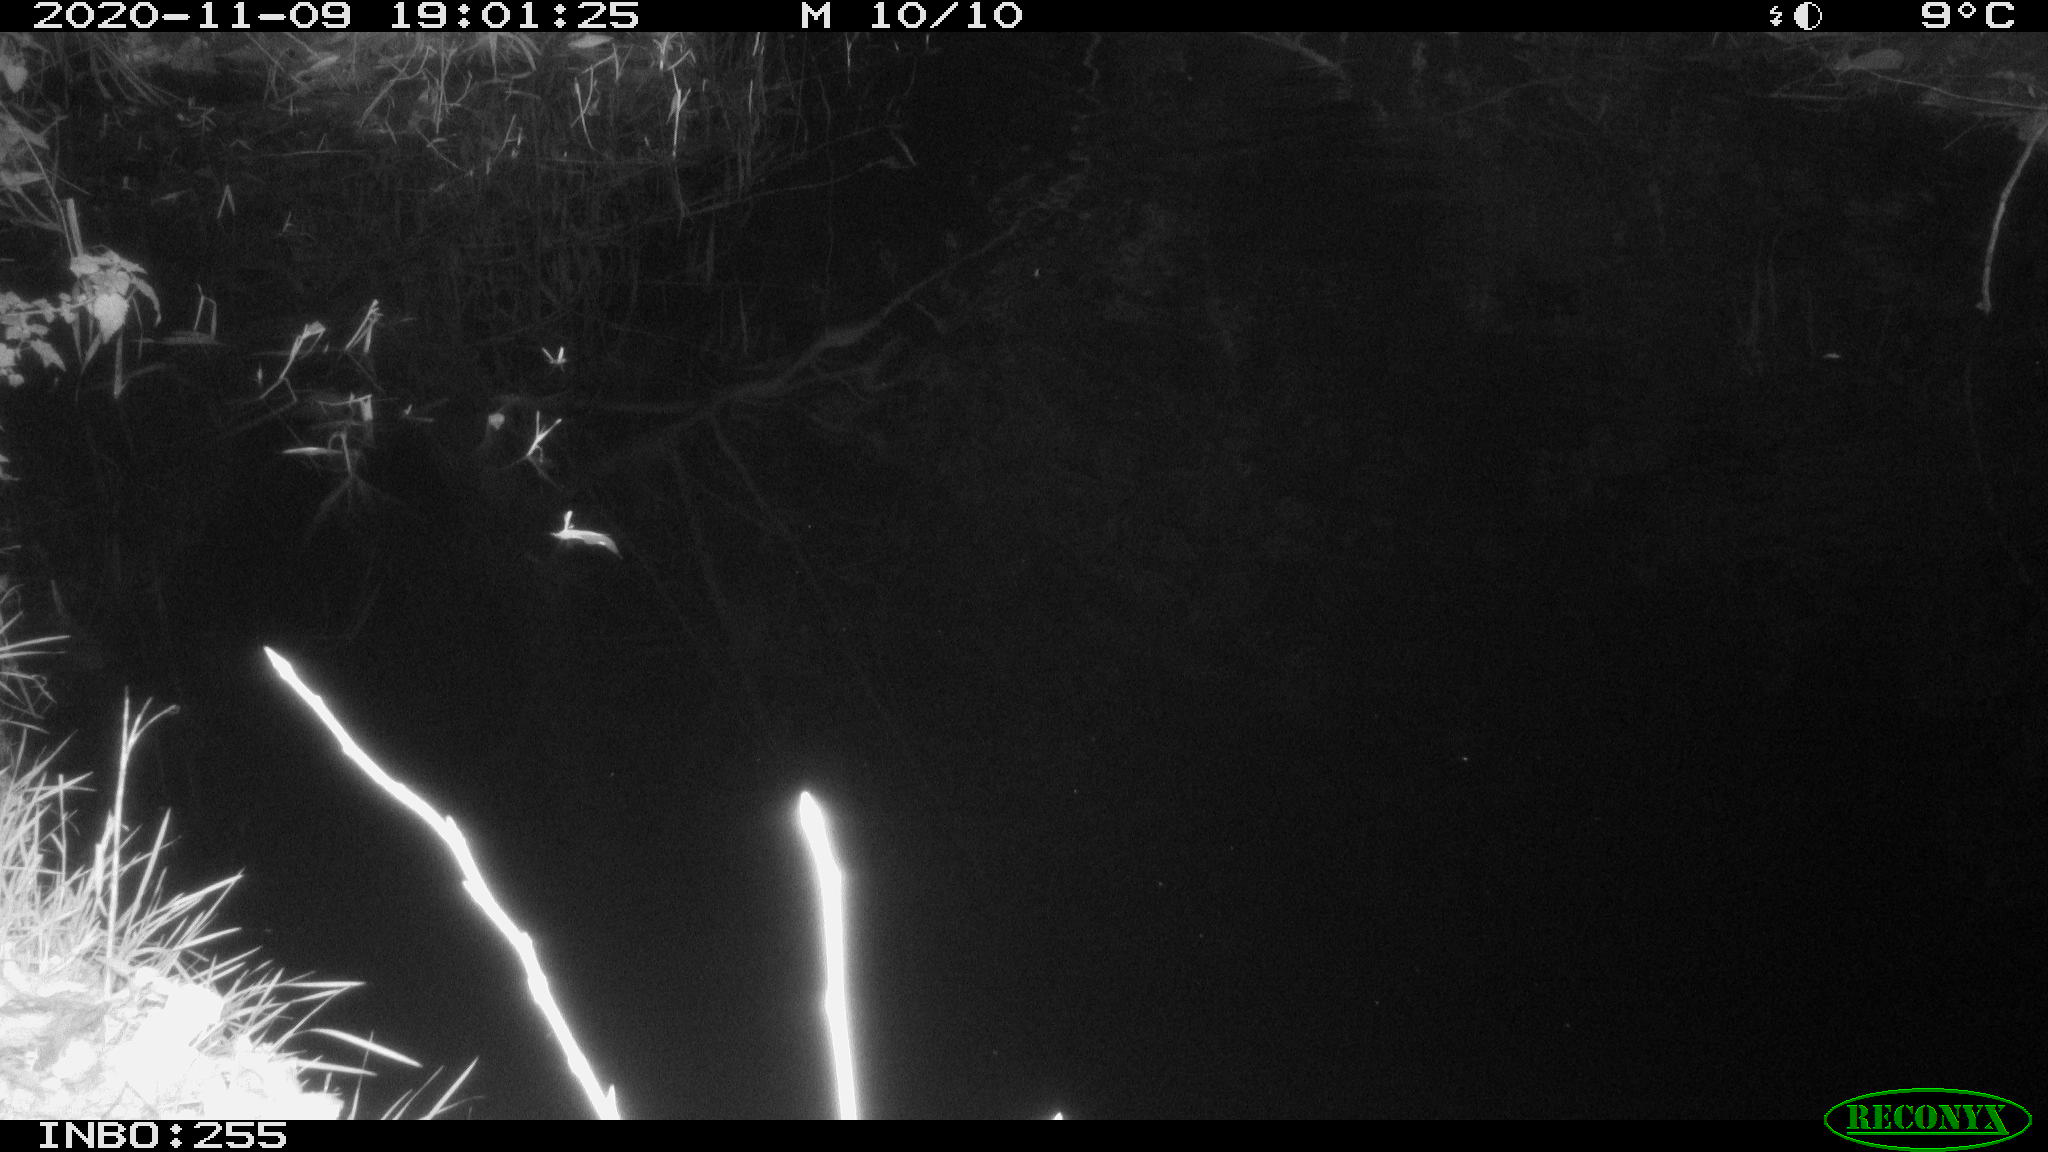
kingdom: Animalia
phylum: Chordata
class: Mammalia
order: Rodentia
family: Muridae
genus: Rattus
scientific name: Rattus norvegicus
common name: Brown rat
